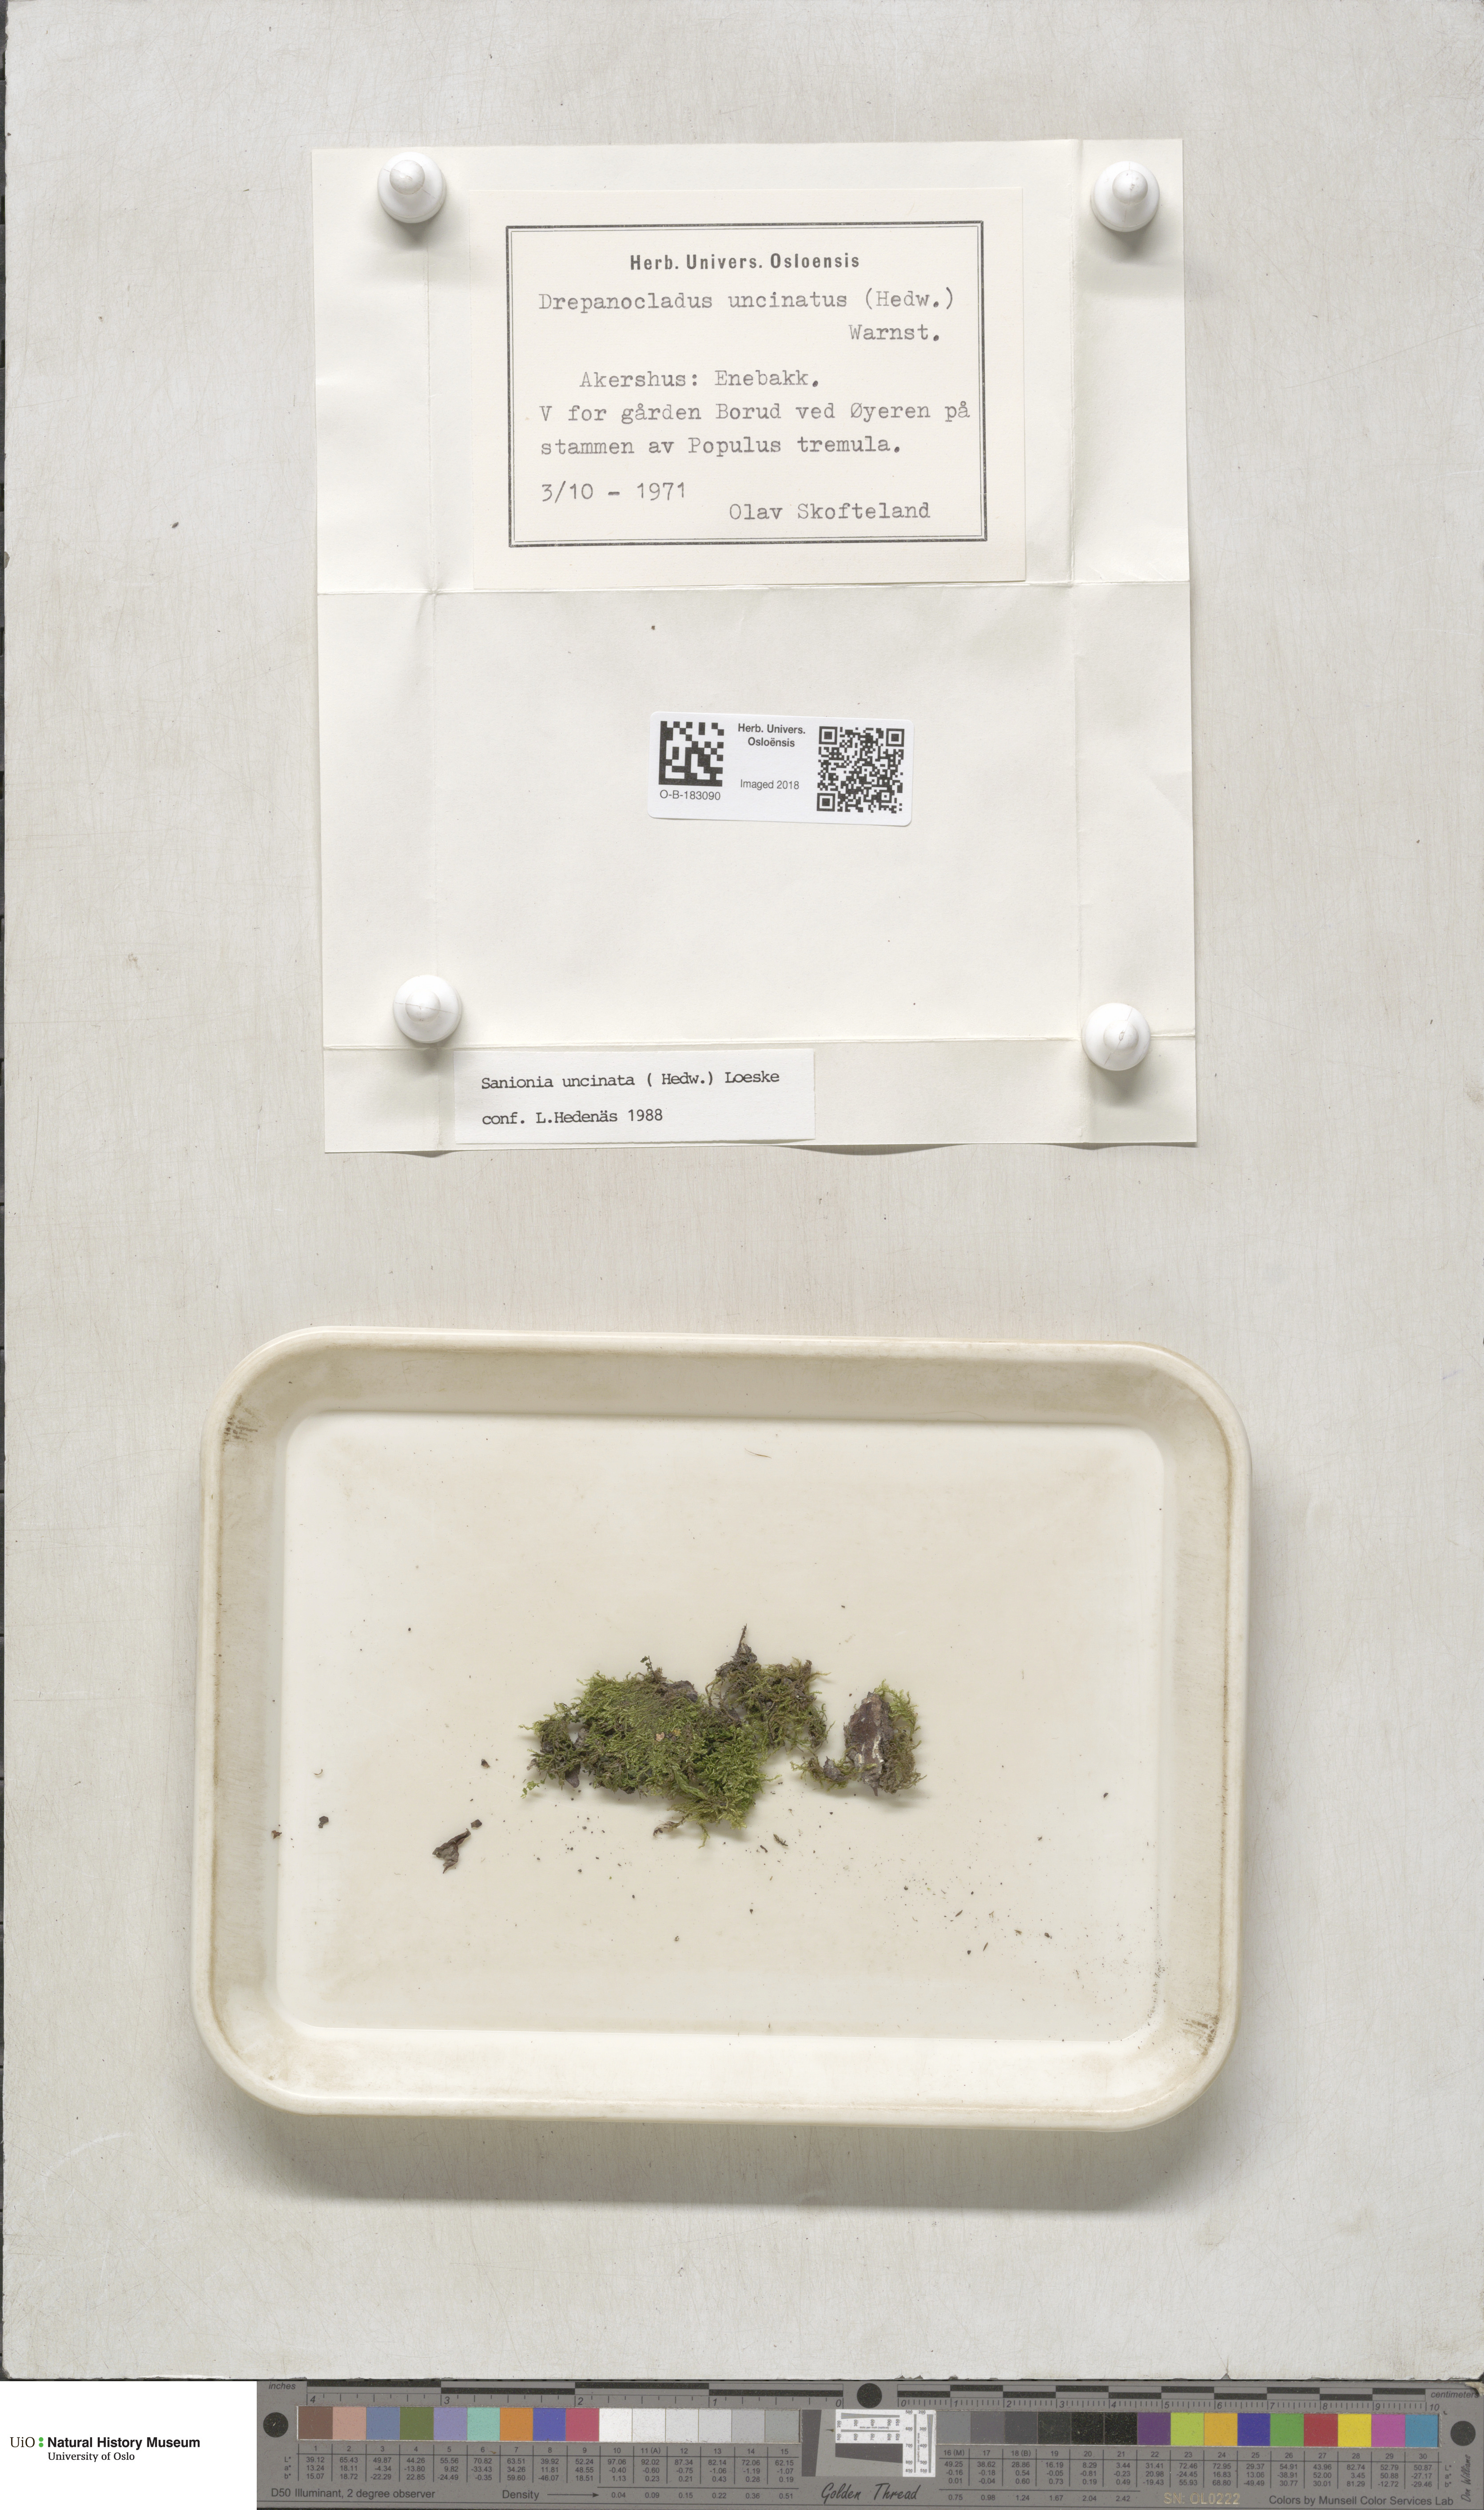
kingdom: Plantae
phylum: Bryophyta
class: Bryopsida
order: Hypnales
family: Scorpidiaceae
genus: Sanionia
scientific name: Sanionia uncinata
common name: Sickle moss
